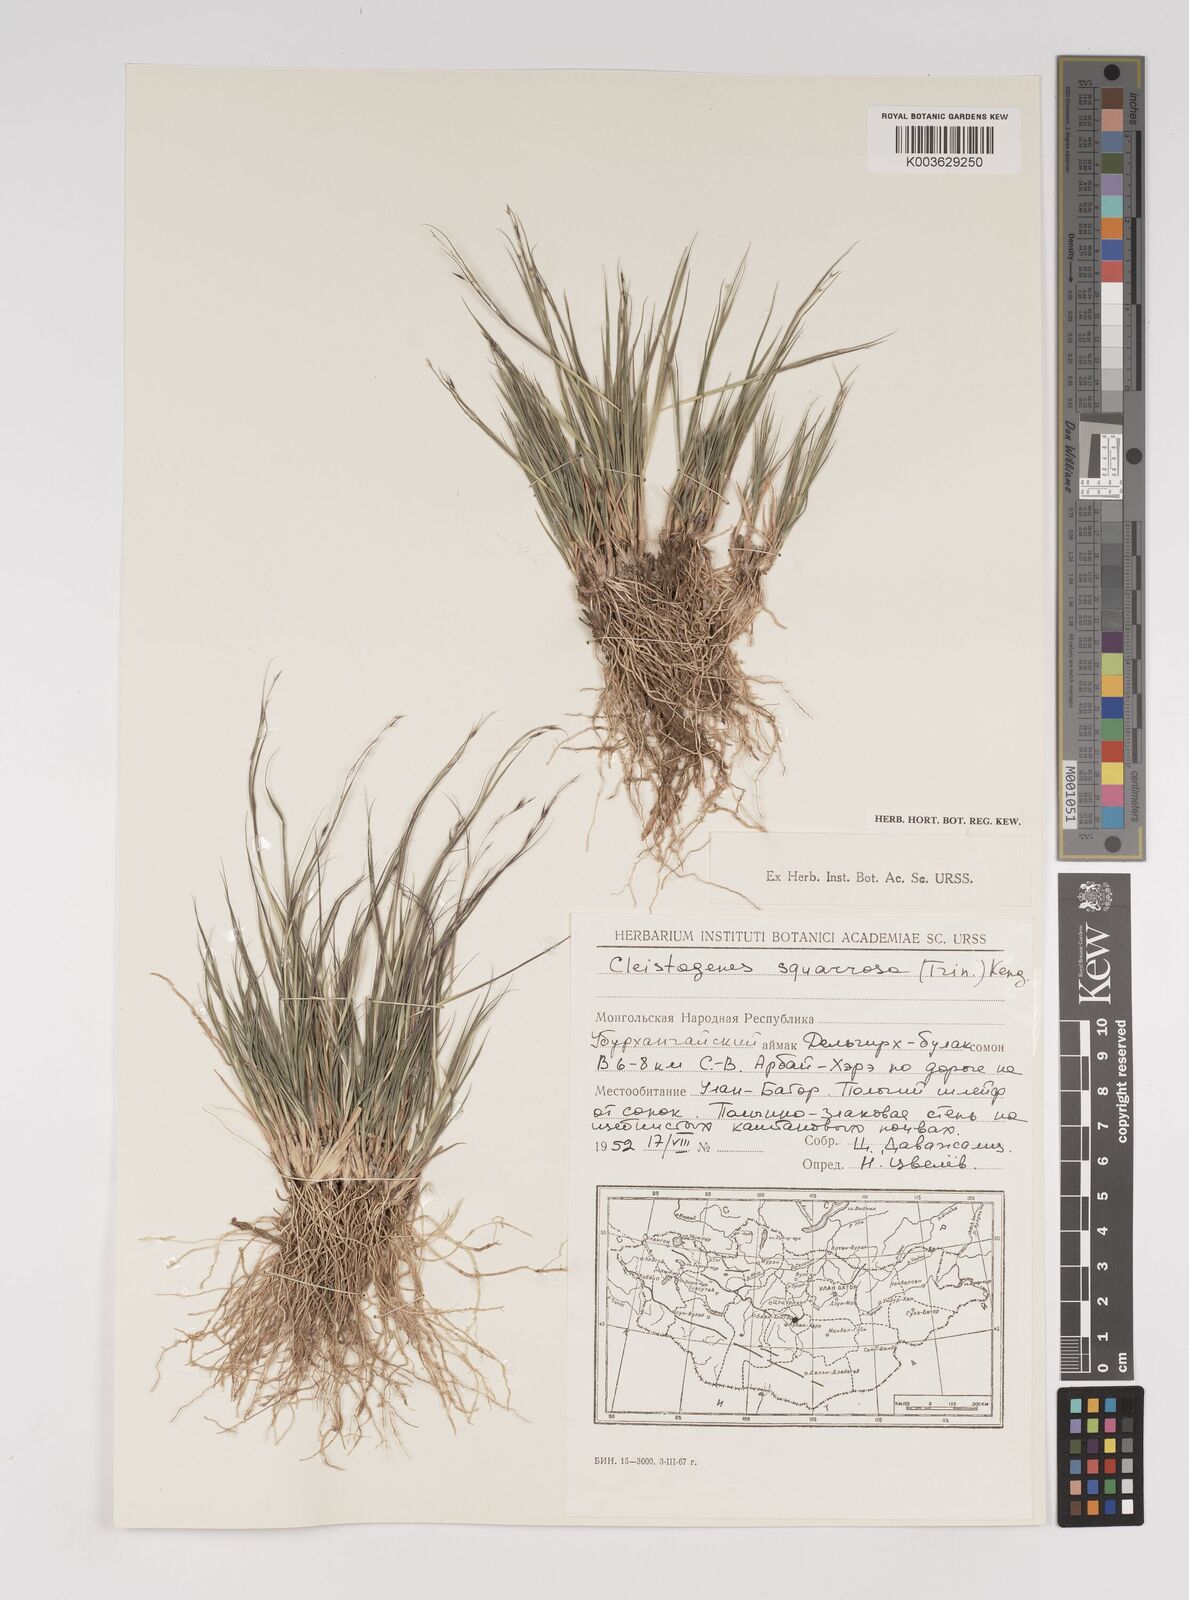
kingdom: Plantae
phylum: Tracheophyta
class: Liliopsida
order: Poales
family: Poaceae
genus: Cleistogenes
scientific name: Cleistogenes squarrosa
